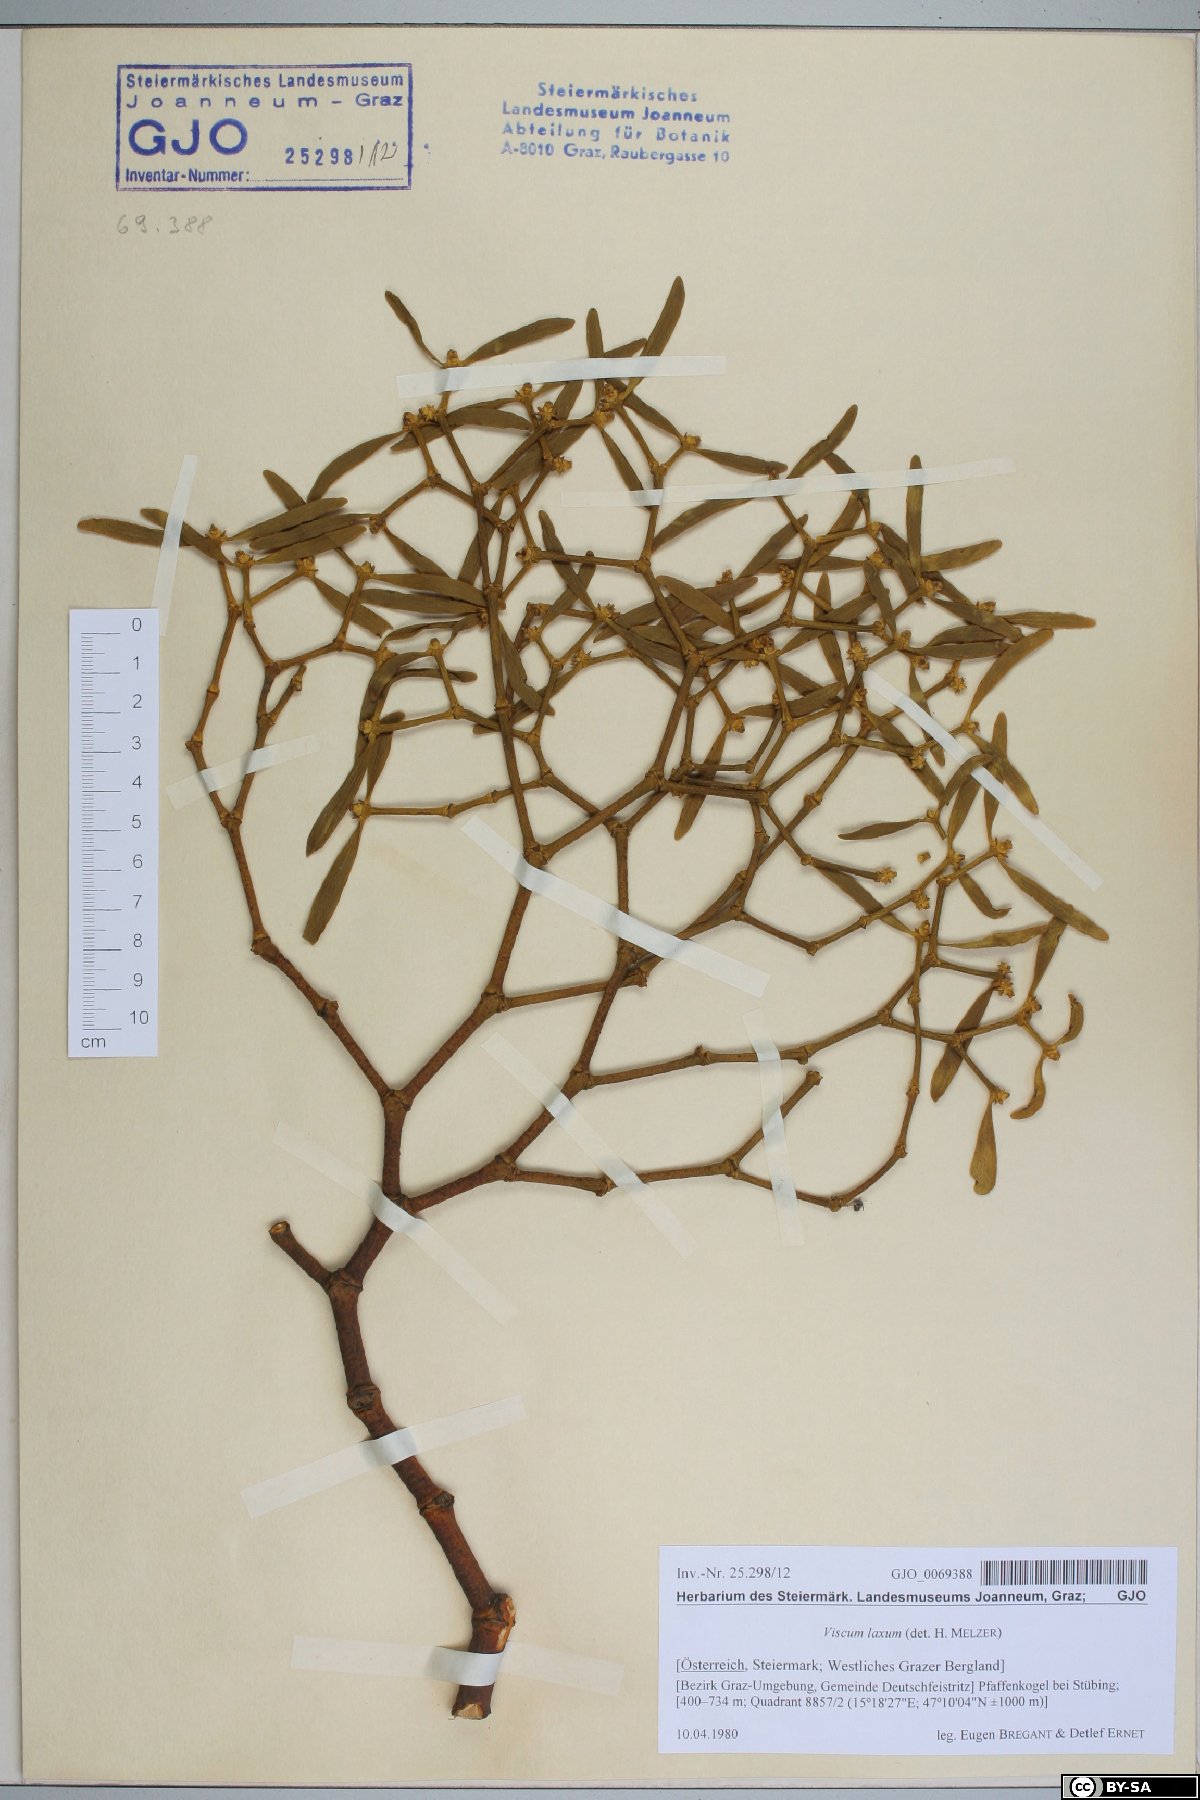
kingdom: Plantae
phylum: Tracheophyta
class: Magnoliopsida
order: Santalales
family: Viscaceae
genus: Viscum
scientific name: Viscum laxum
